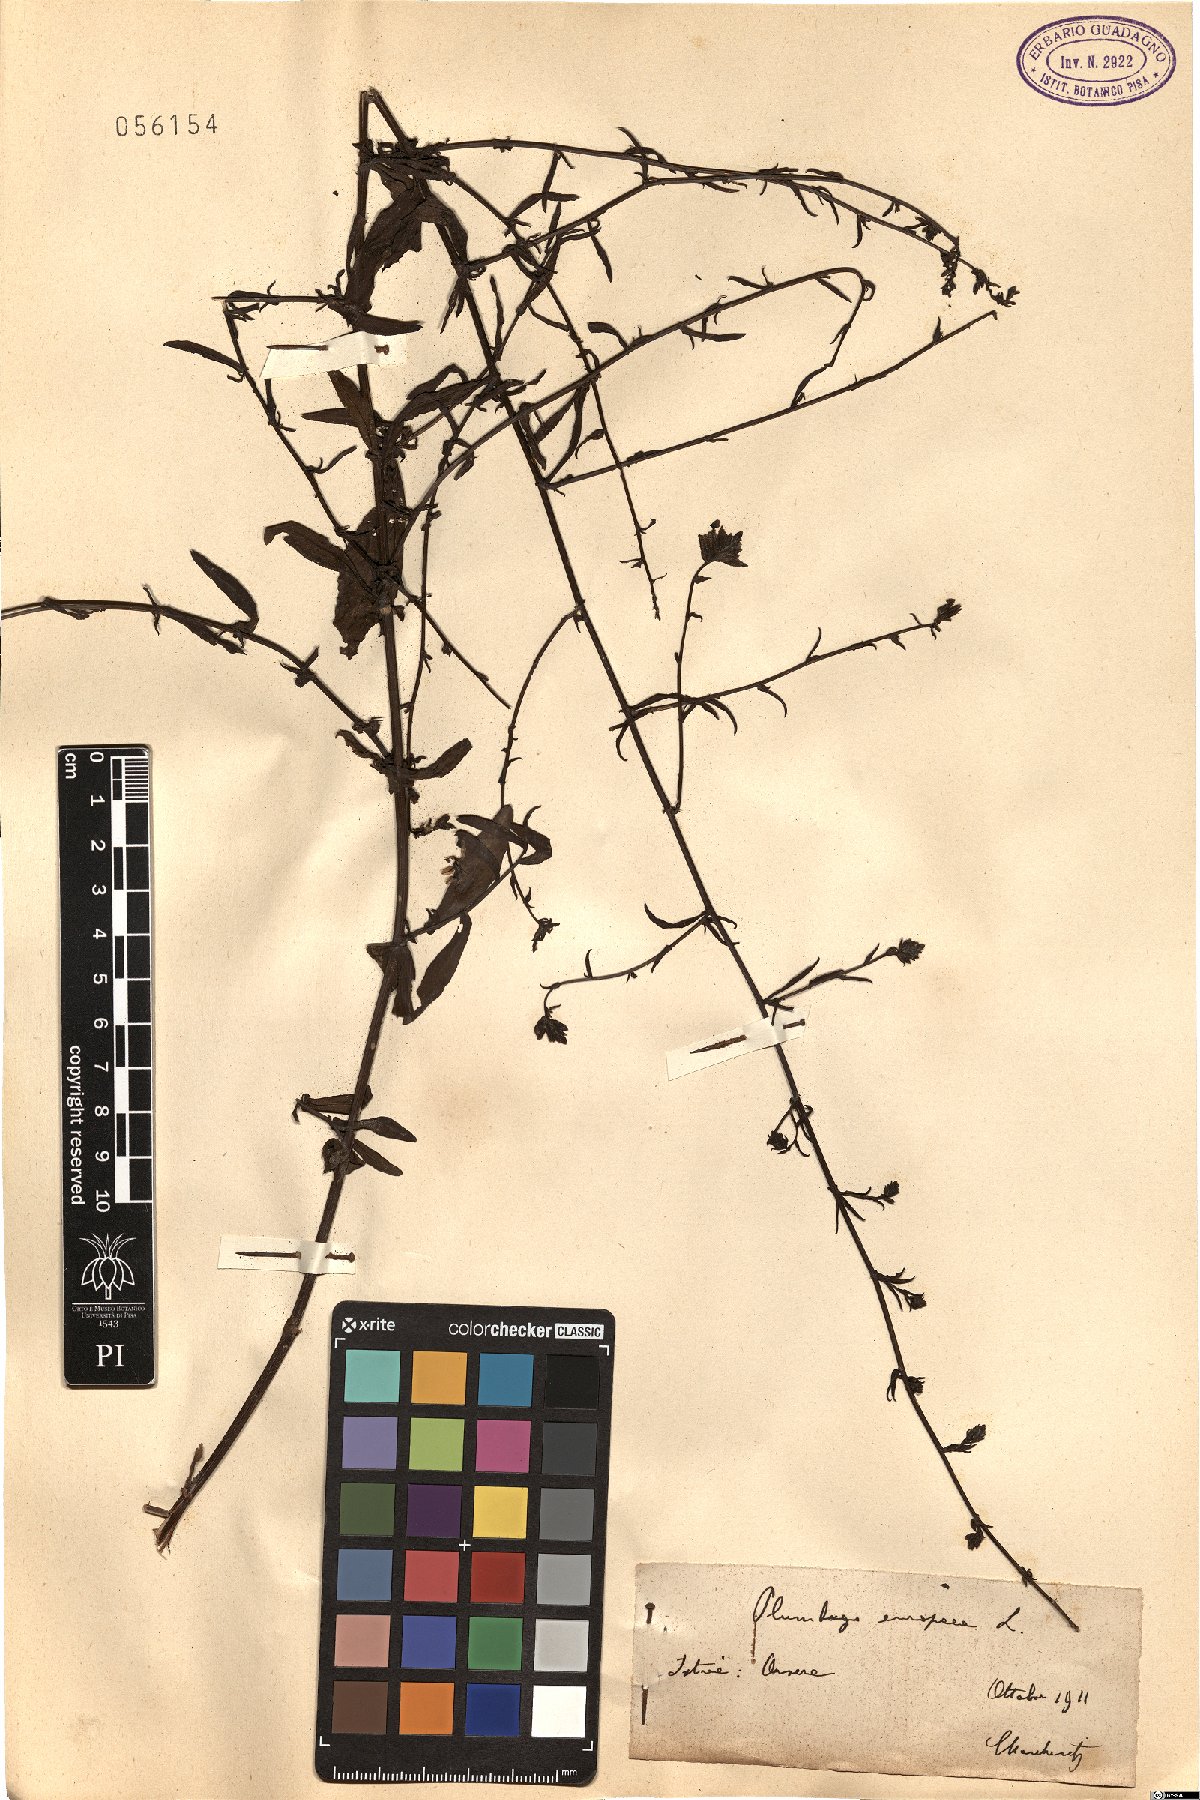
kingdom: Plantae
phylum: Tracheophyta
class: Magnoliopsida
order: Caryophyllales
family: Plumbaginaceae
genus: Plumbago
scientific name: Plumbago europaea
